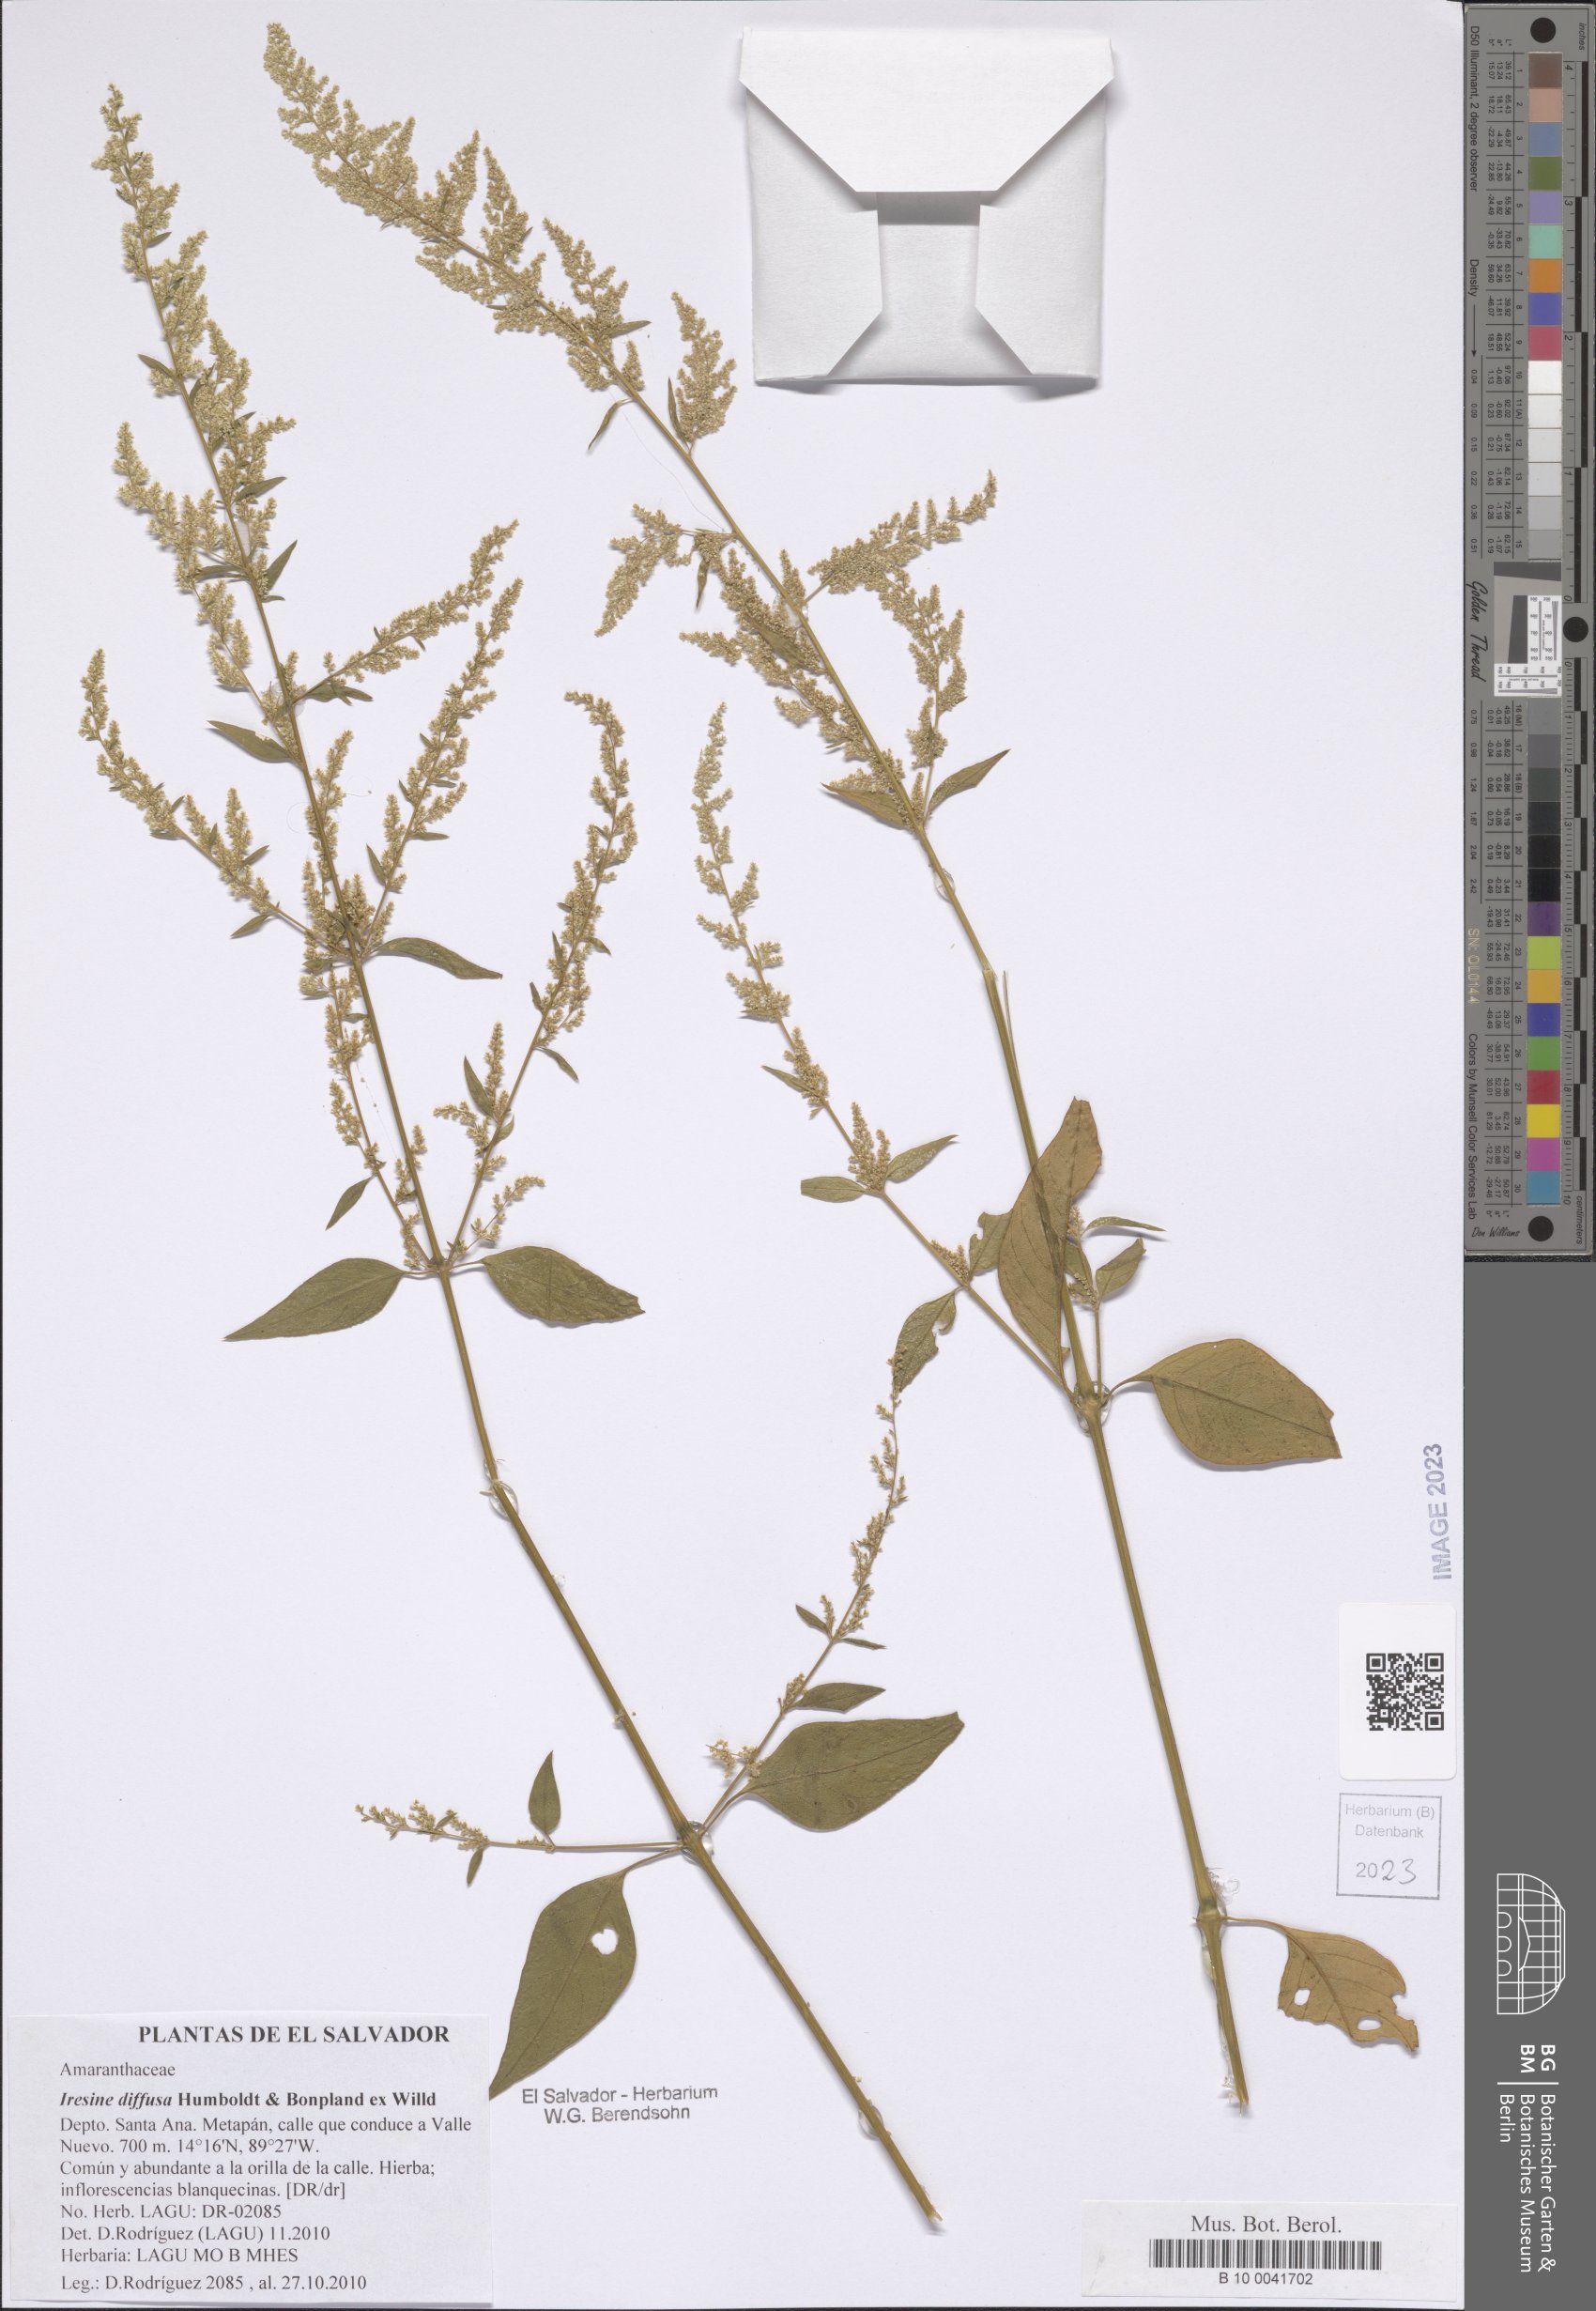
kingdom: Plantae
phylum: Tracheophyta
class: Magnoliopsida
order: Caryophyllales
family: Amaranthaceae
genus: Iresine
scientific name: Iresine diffusa
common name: Juba's-bush
